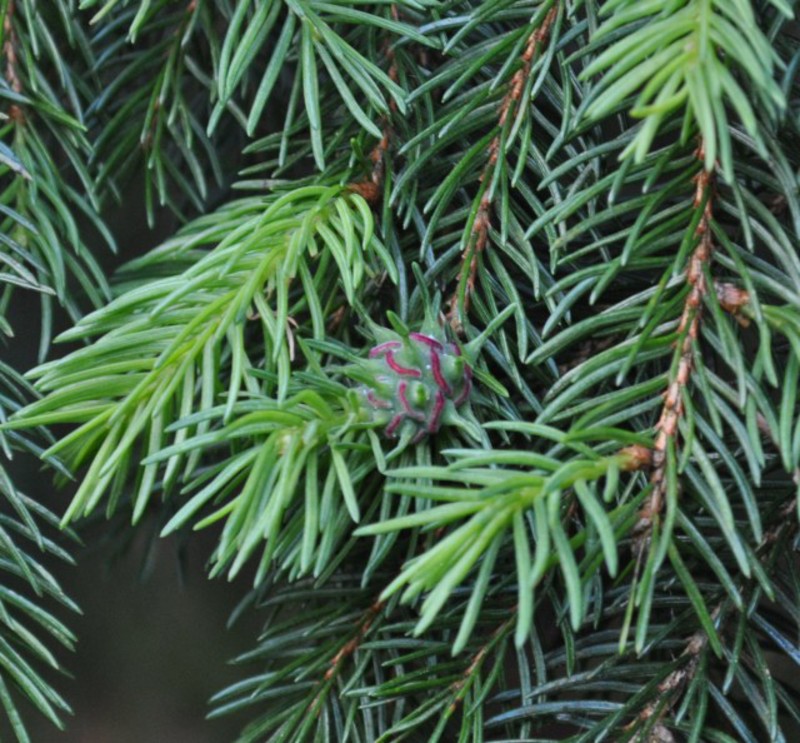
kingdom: Animalia
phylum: Arthropoda
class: Insecta
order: Hemiptera
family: Adelgidae
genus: Adelges
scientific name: Adelges viridis
